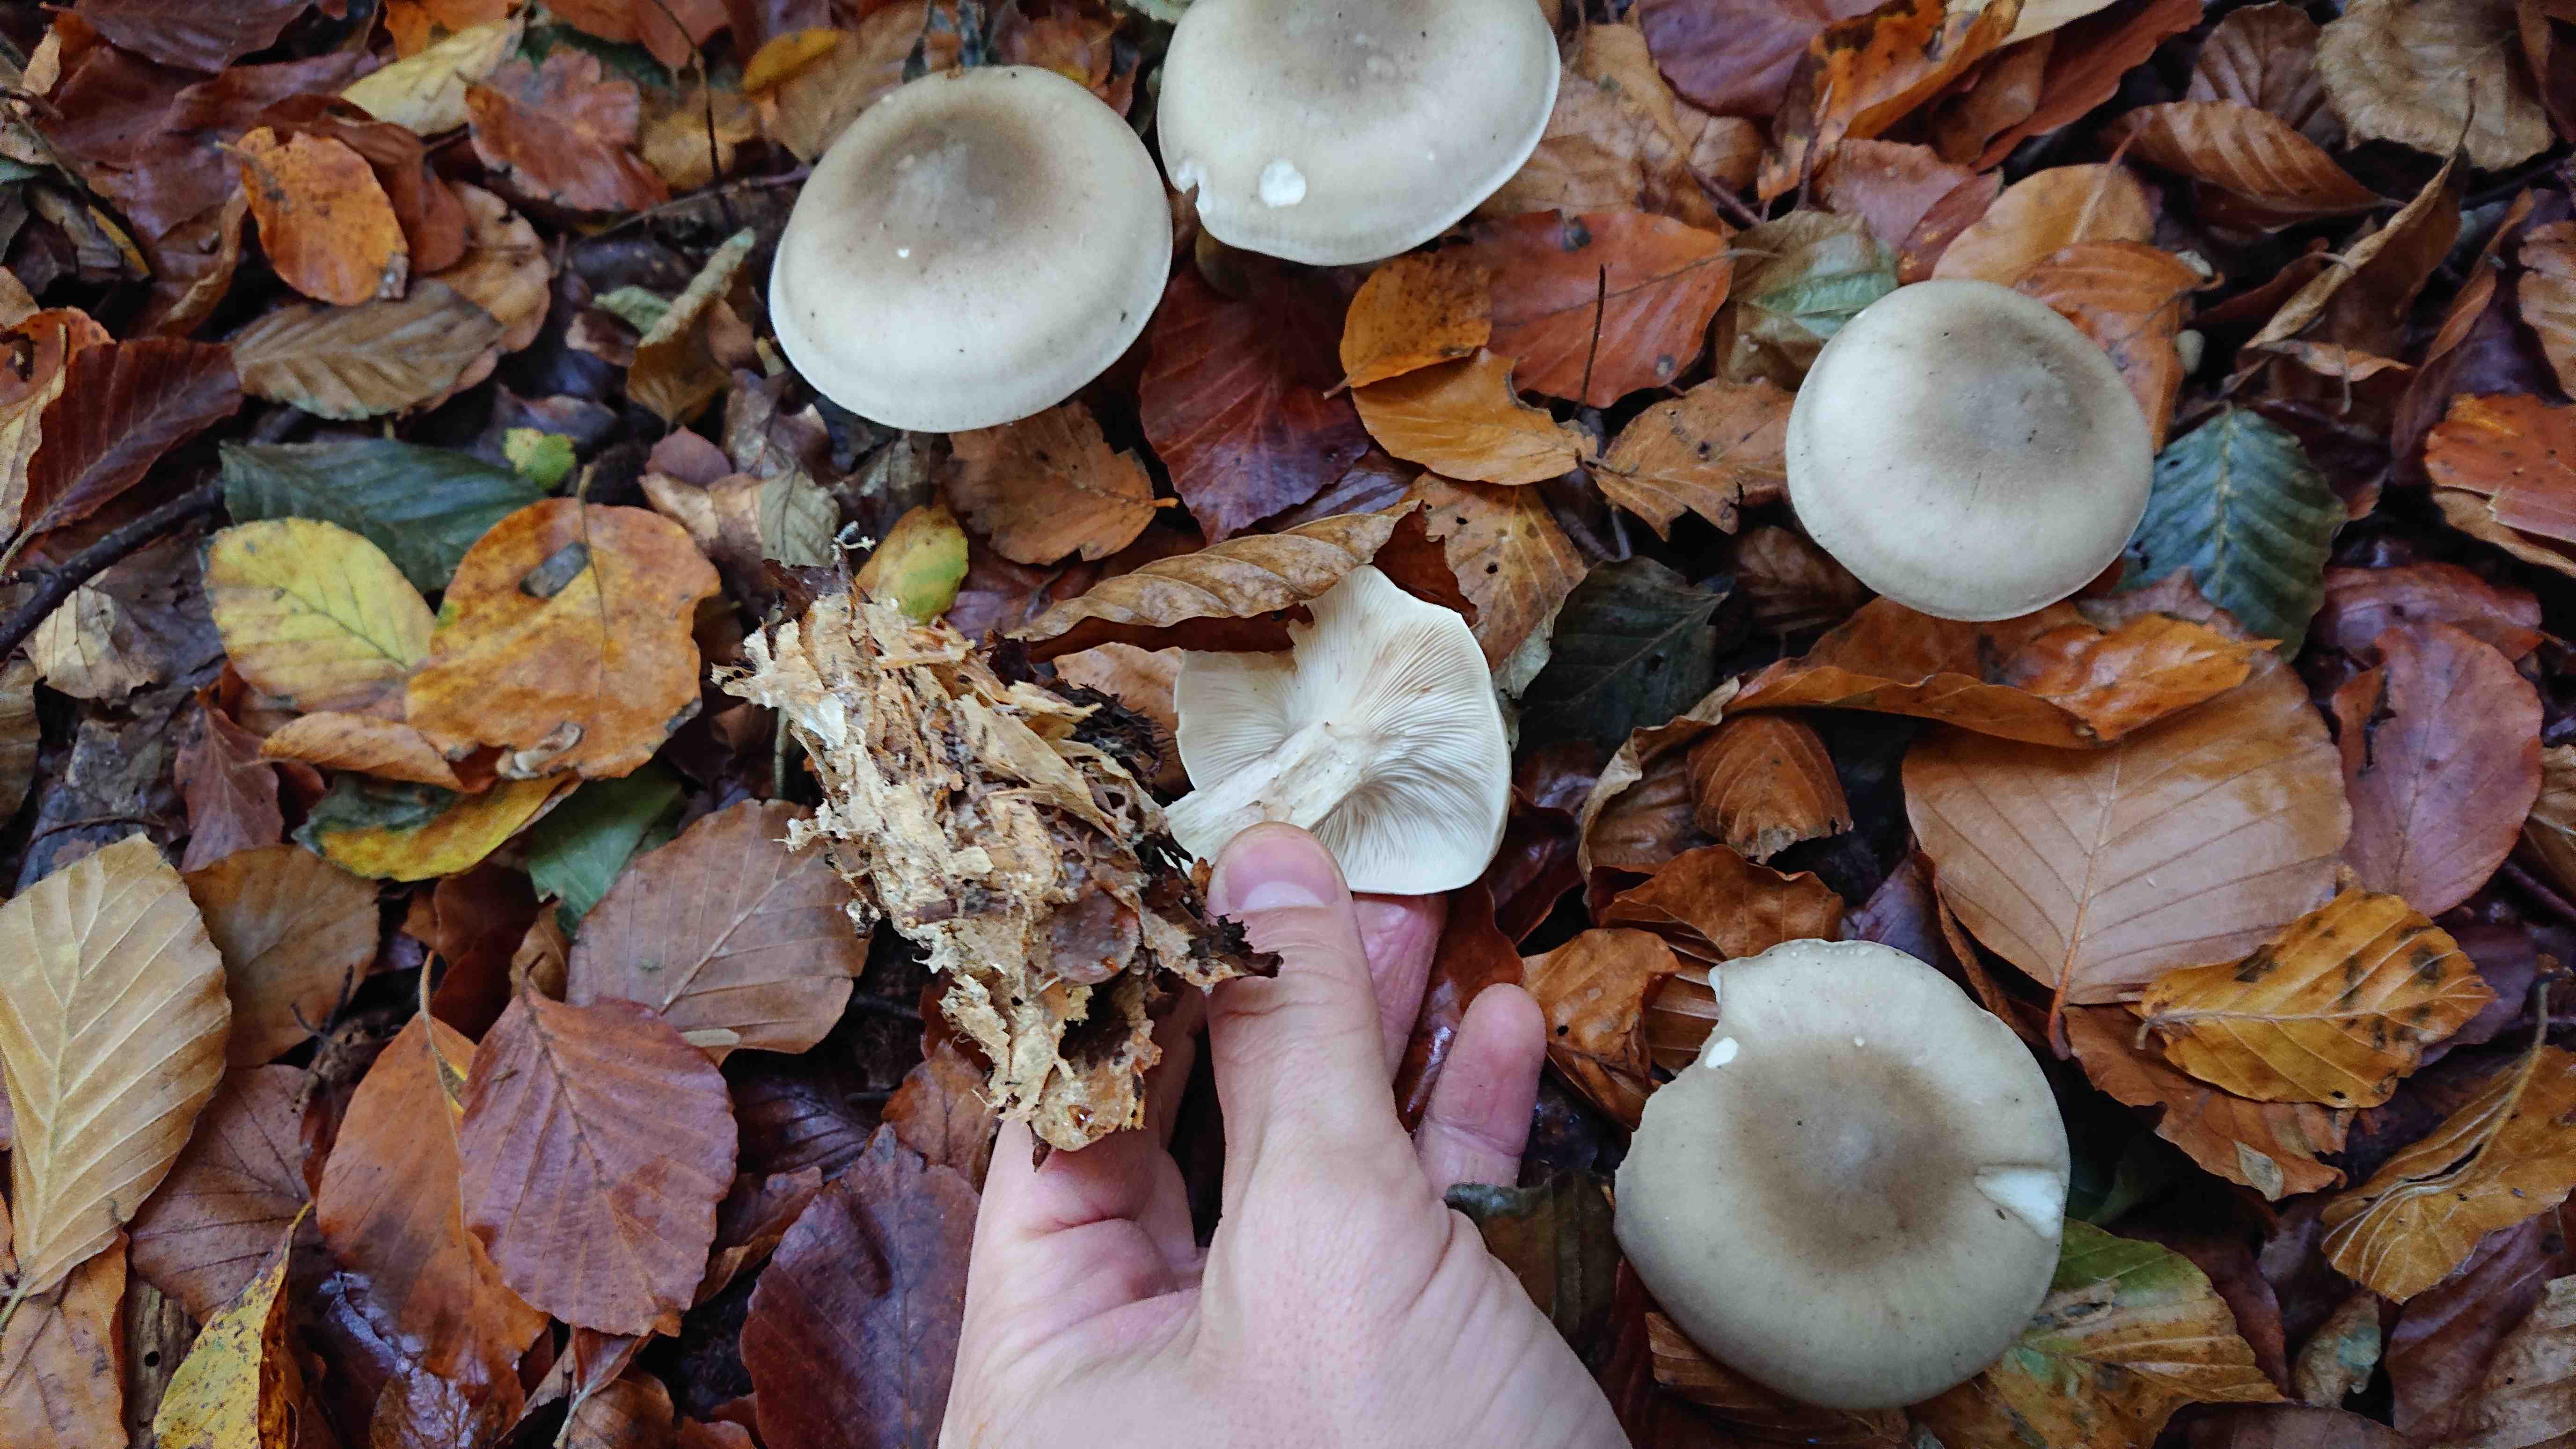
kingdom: Fungi
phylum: Basidiomycota
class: Agaricomycetes
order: Agaricales
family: Tricholomataceae
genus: Clitocybe
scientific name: Clitocybe nebularis
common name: tåge-tragthat
